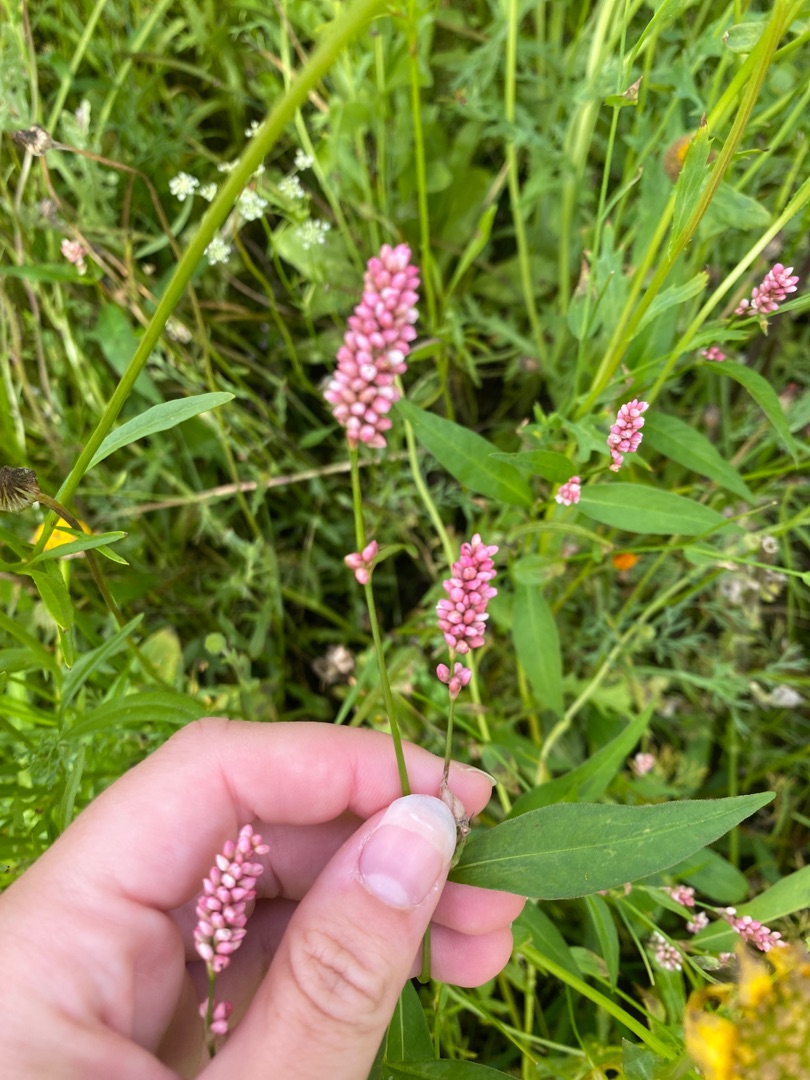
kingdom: Plantae
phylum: Tracheophyta
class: Magnoliopsida
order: Caryophyllales
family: Polygonaceae
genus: Persicaria
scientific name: Persicaria maculosa
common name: Fersken-pileurt
